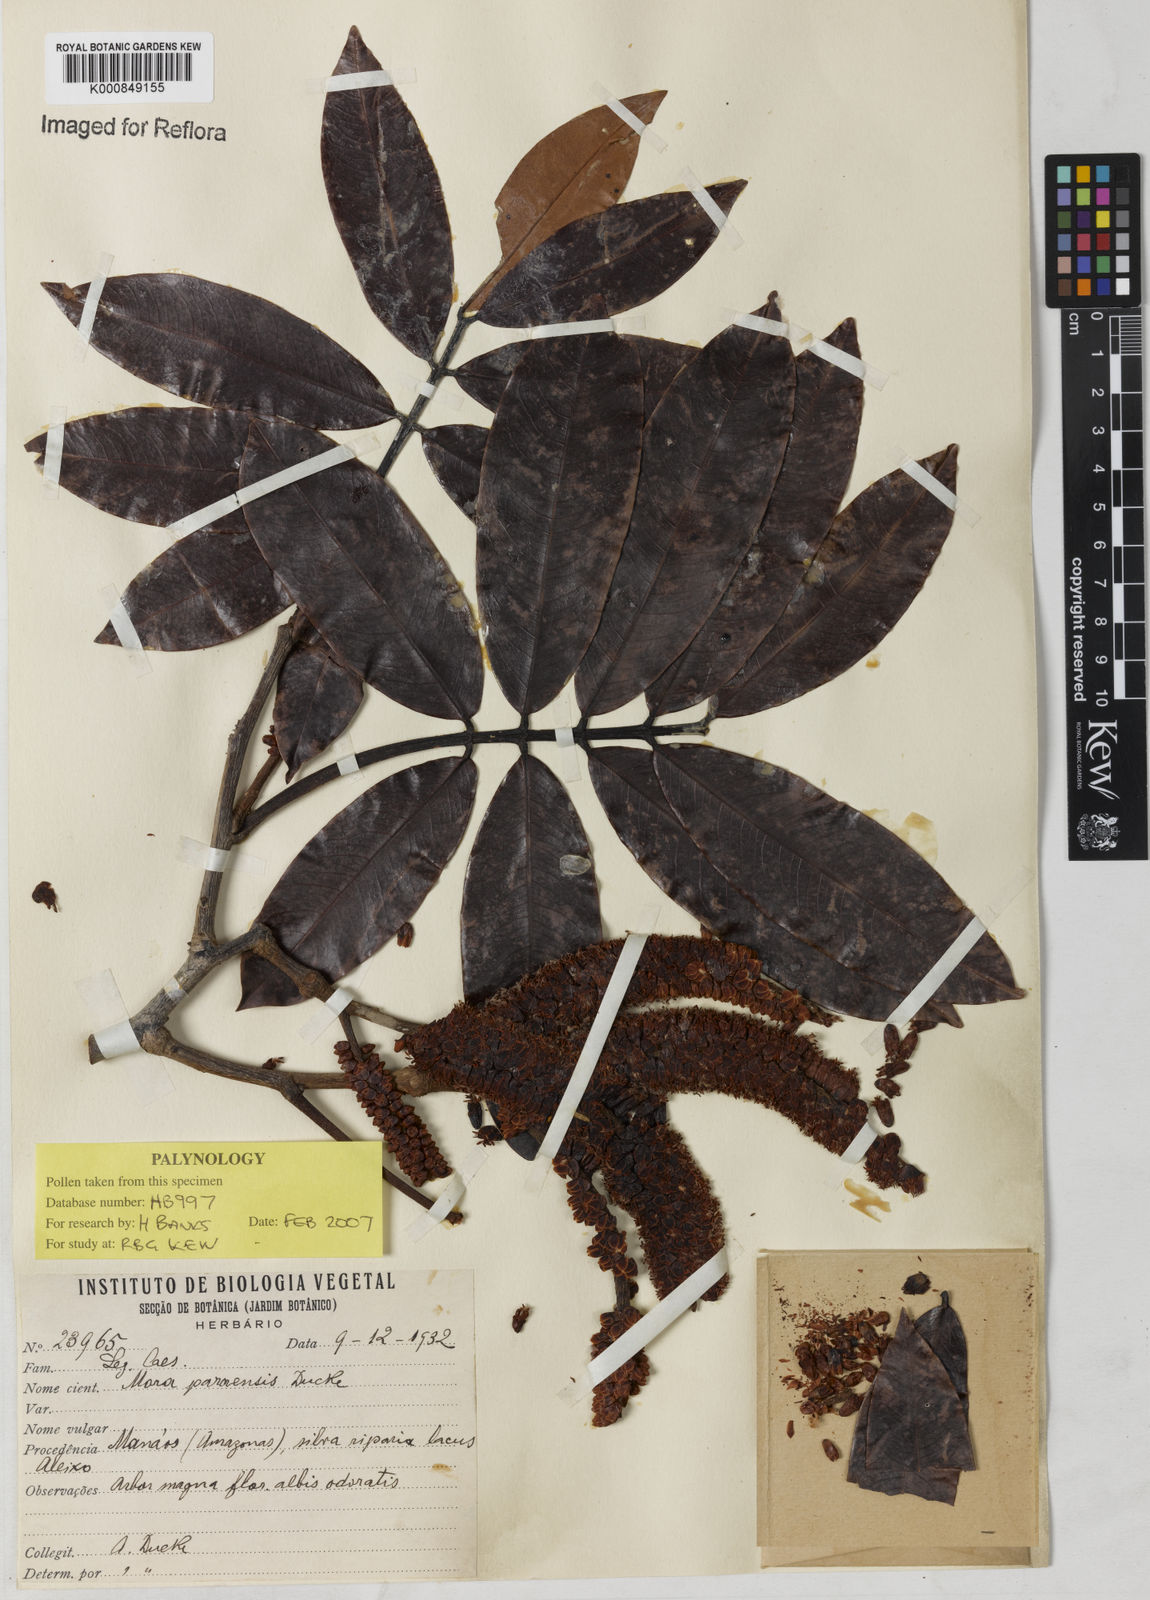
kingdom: Plantae
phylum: Tracheophyta
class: Magnoliopsida
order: Fabales
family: Fabaceae
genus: Mora
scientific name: Mora paraensis
